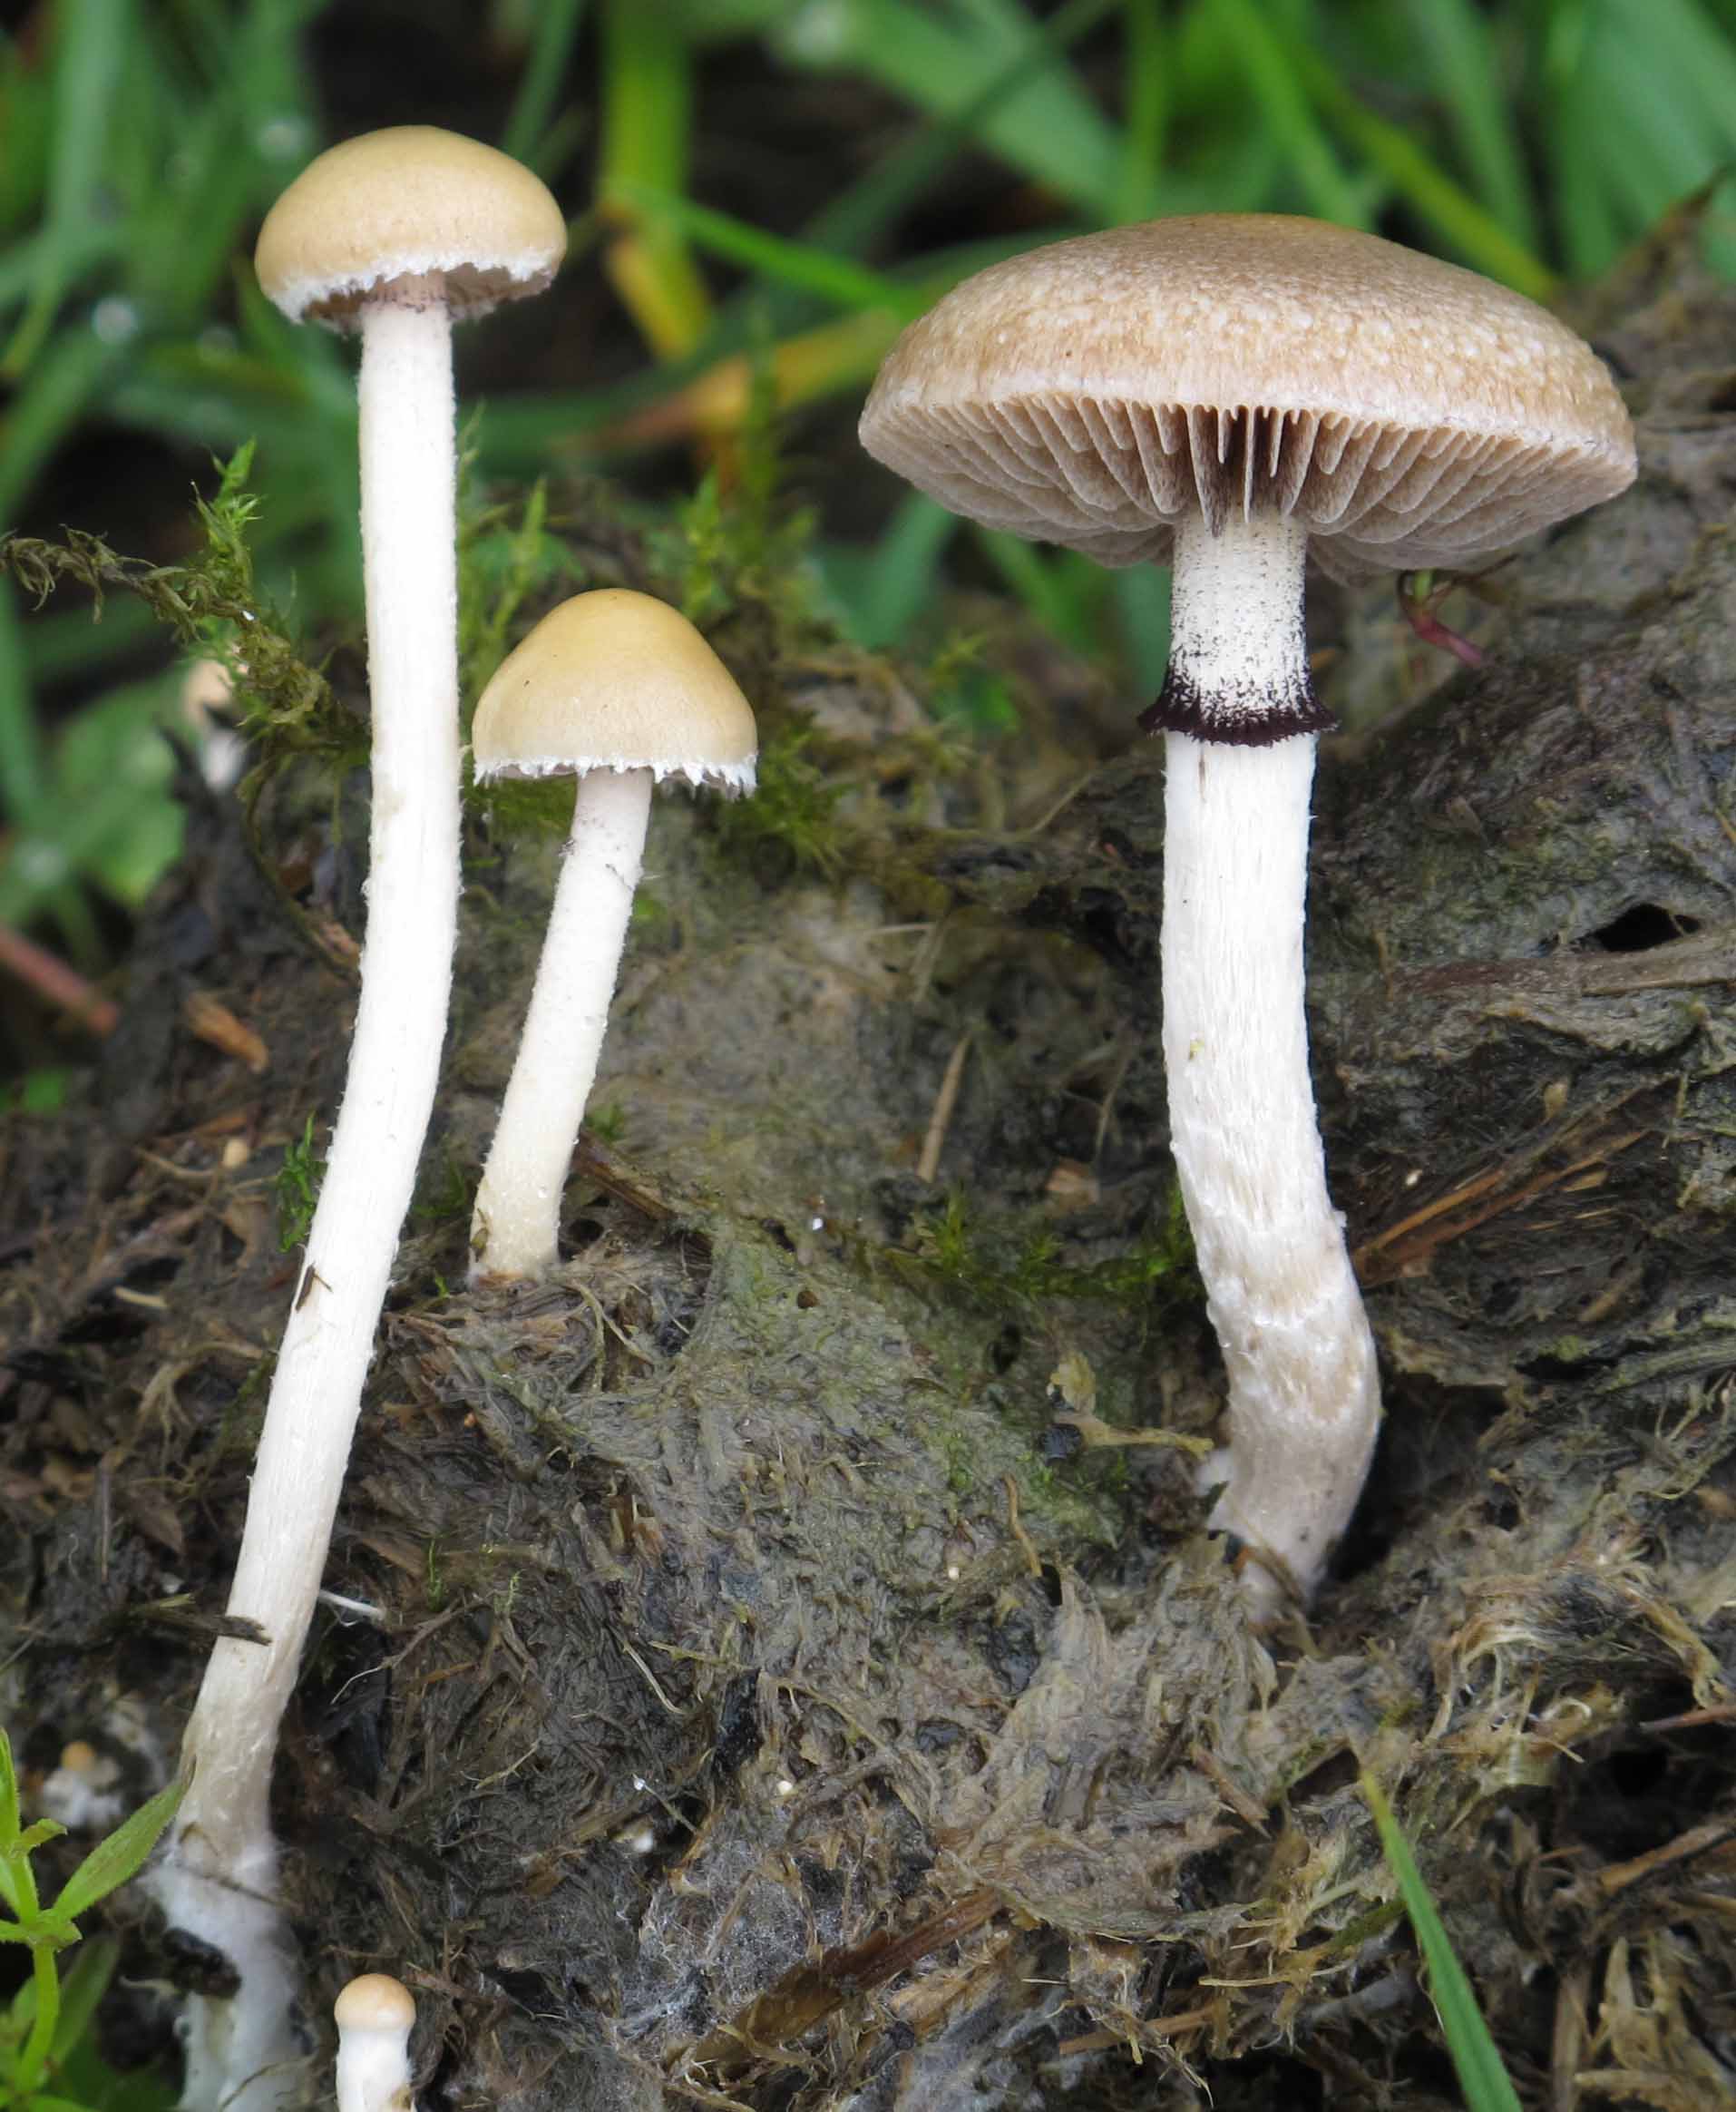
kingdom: Fungi
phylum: Basidiomycota
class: Agaricomycetes
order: Agaricales
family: Strophariaceae
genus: Deconica
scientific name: Deconica moelleri
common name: Møllers stråhat
